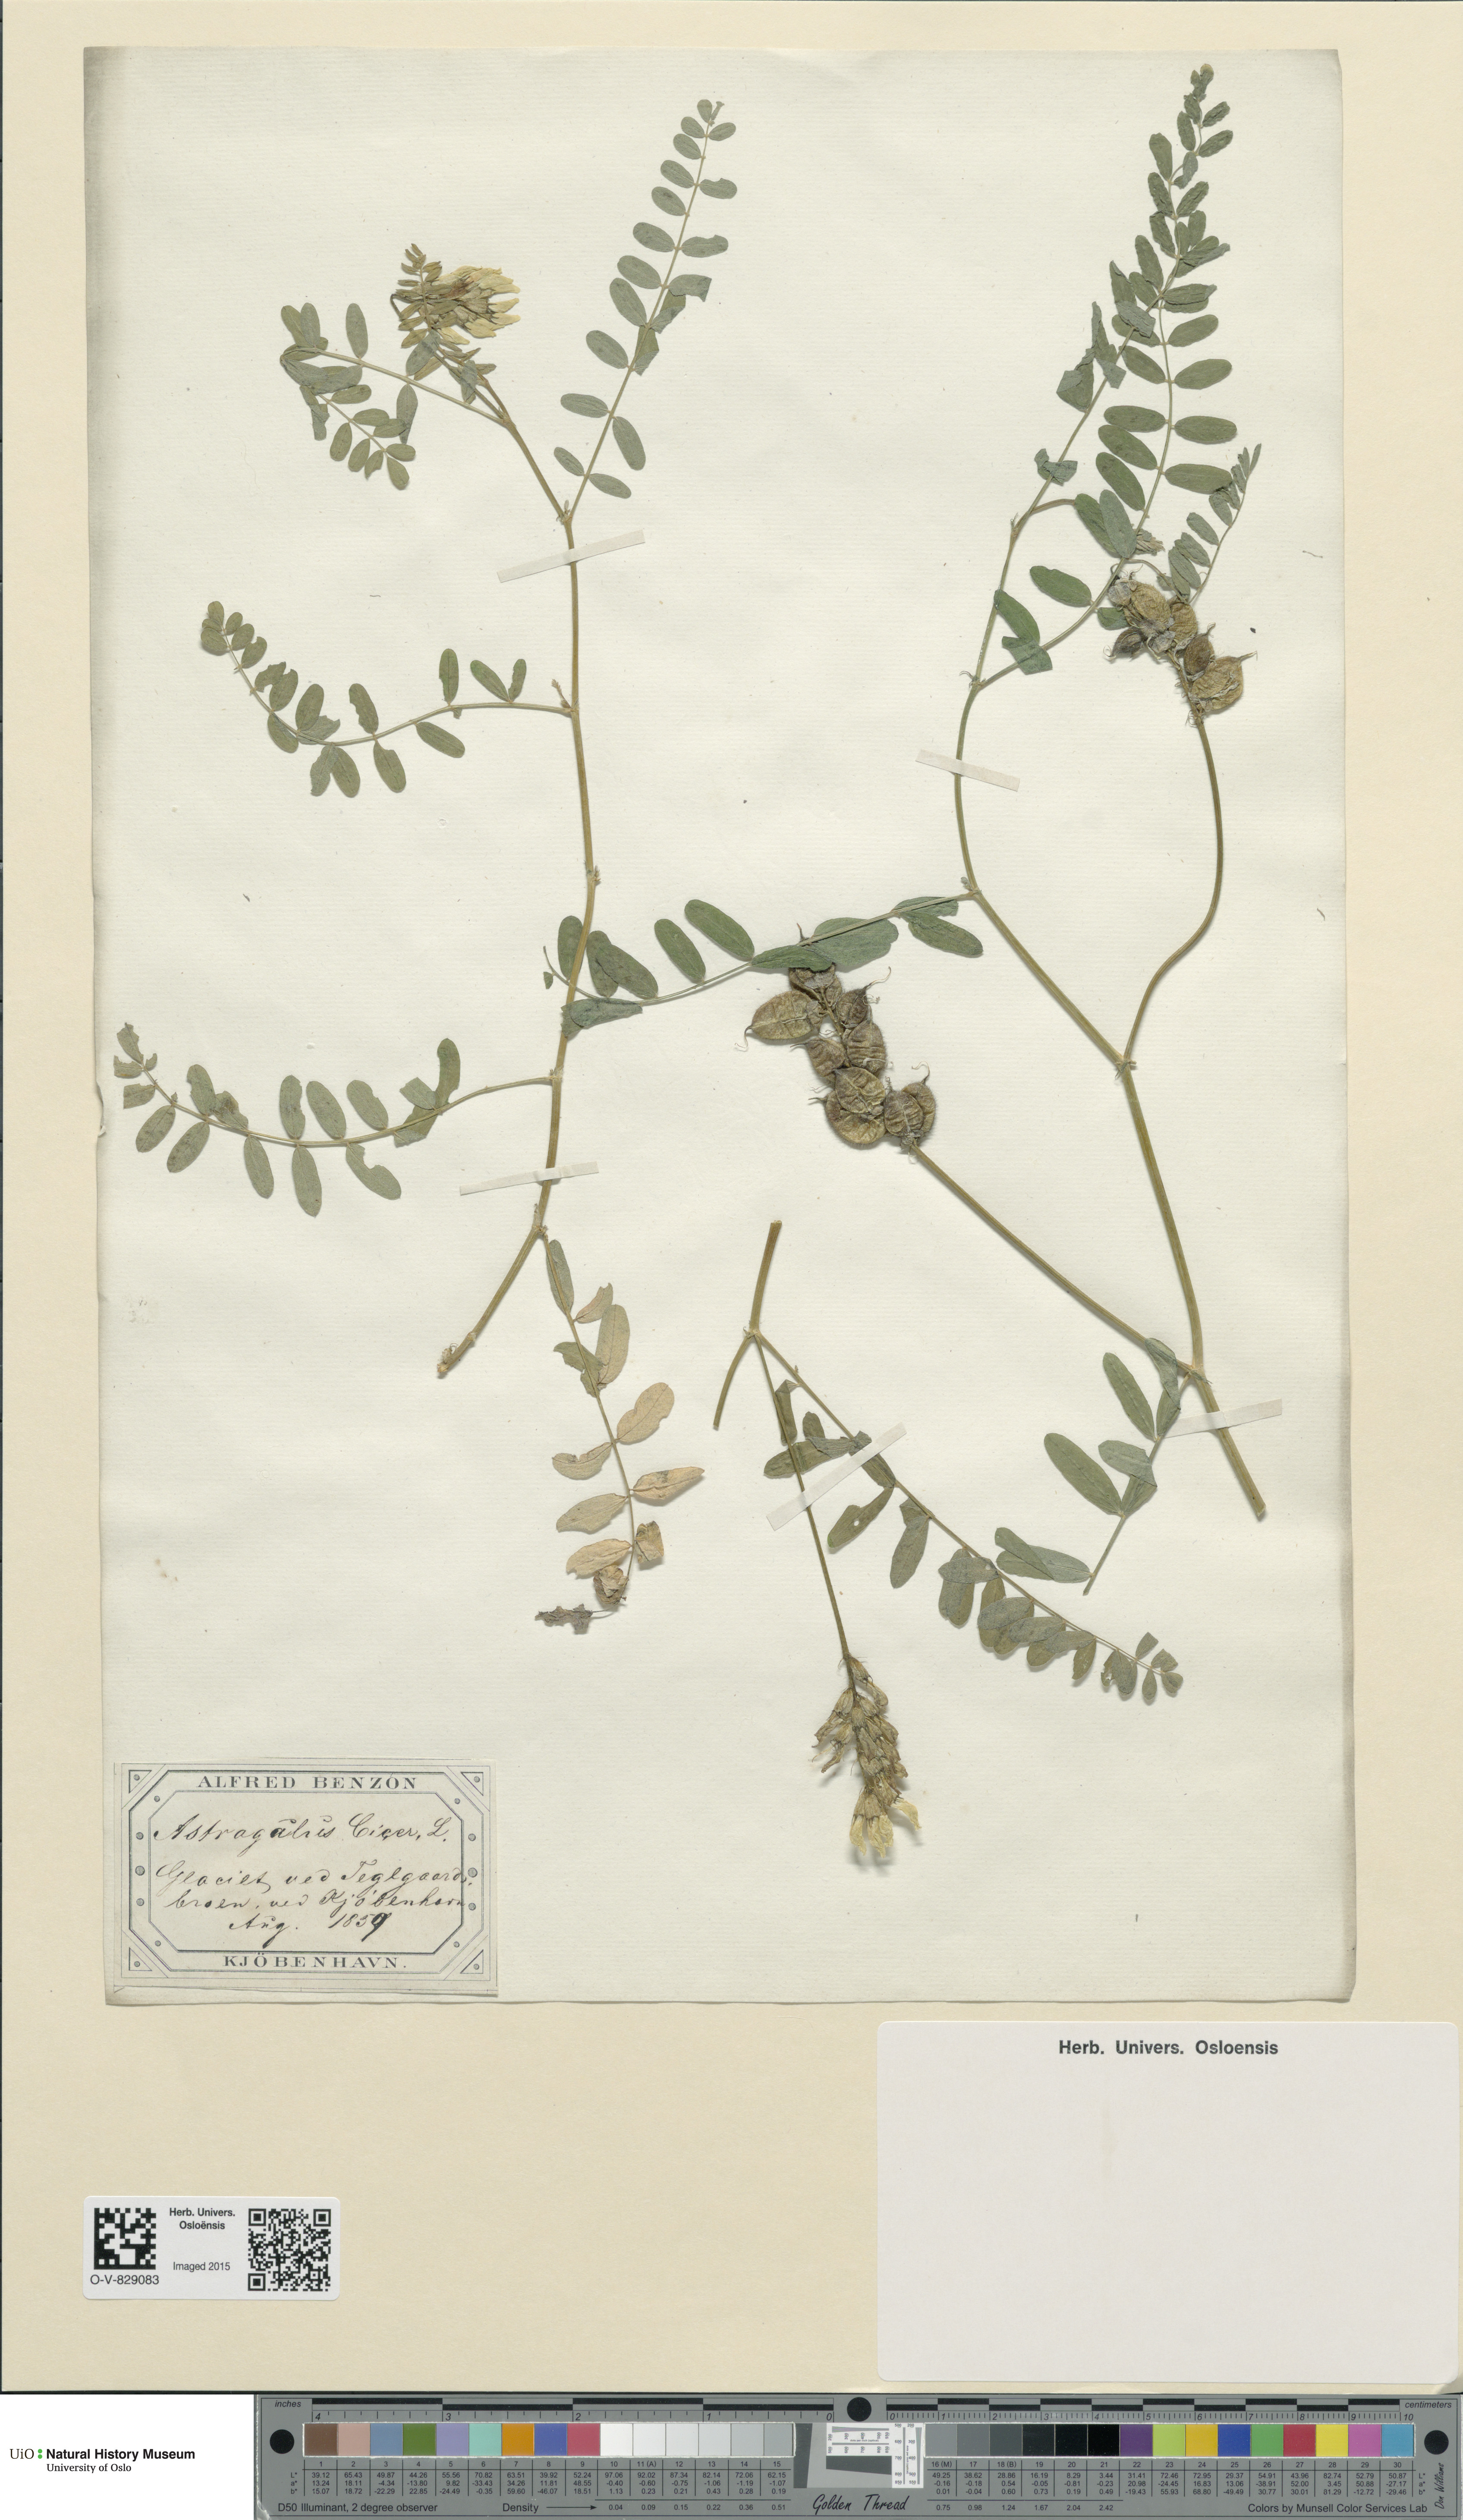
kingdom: Plantae
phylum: Tracheophyta
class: Magnoliopsida
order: Fabales
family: Fabaceae
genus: Astragalus
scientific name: Astragalus cicer
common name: Chick-pea milk-vetch
